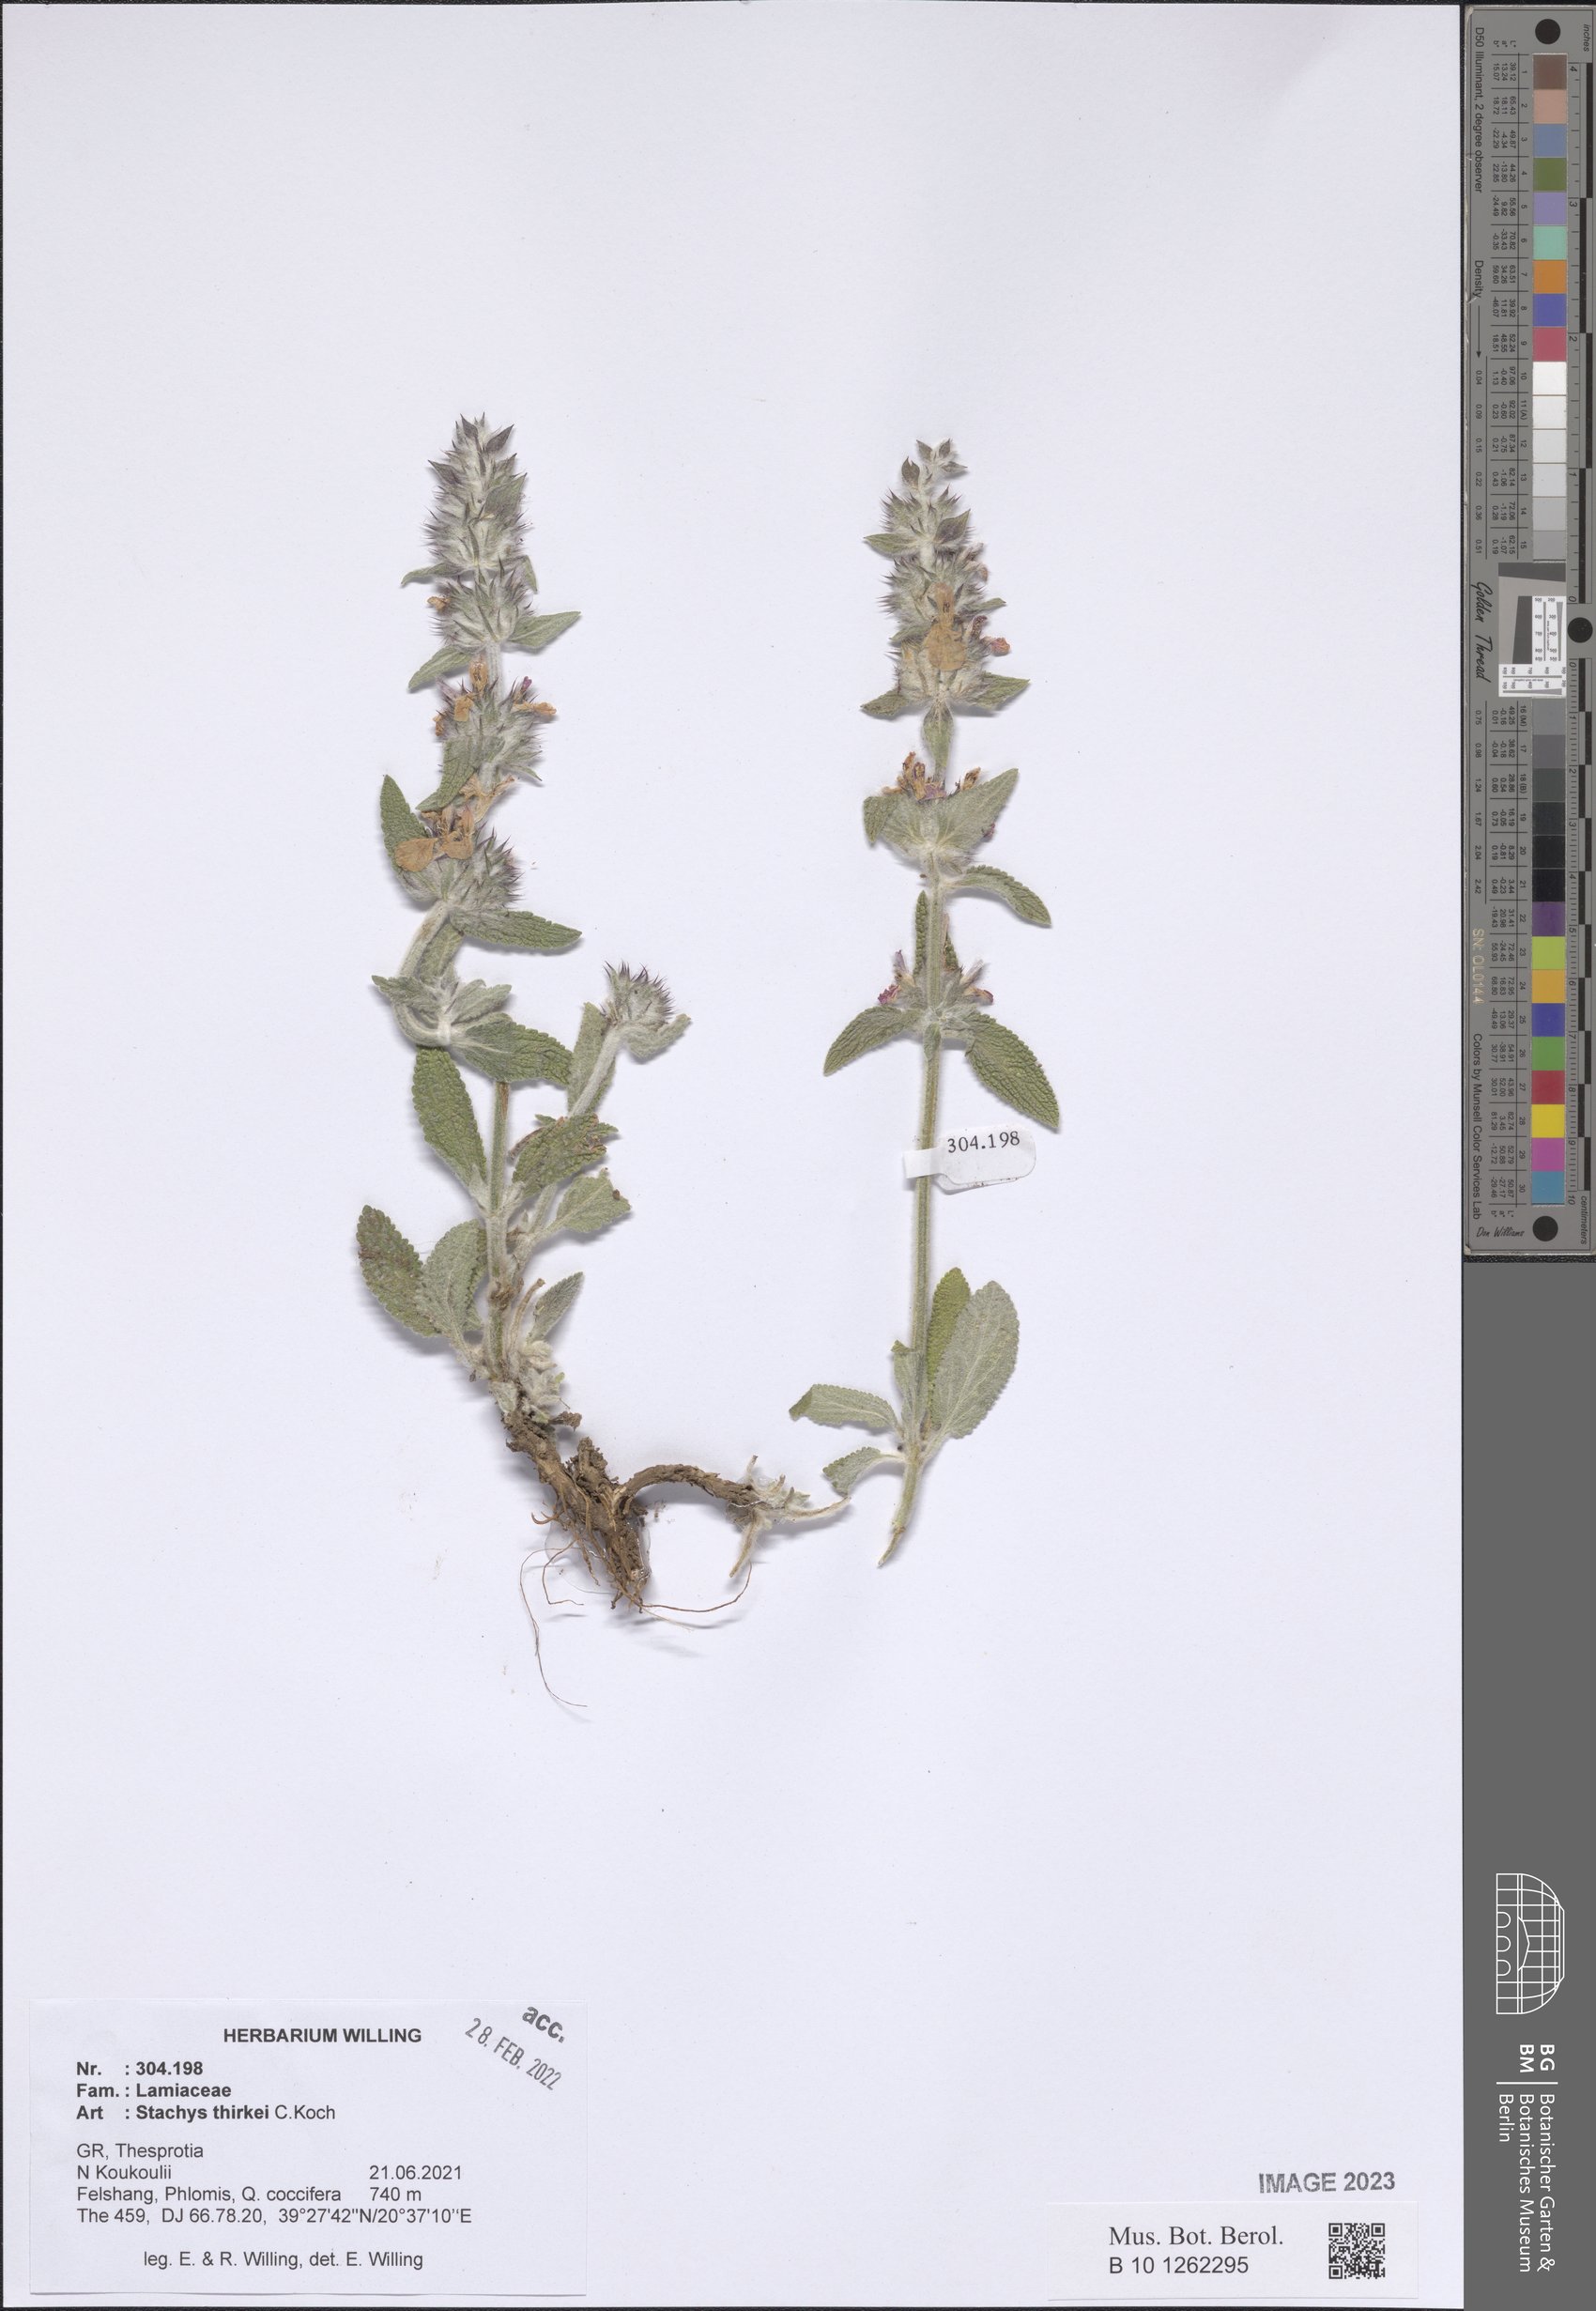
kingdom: Plantae
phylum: Tracheophyta
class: Magnoliopsida
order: Lamiales
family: Lamiaceae
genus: Stachys
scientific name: Stachys thirkei
